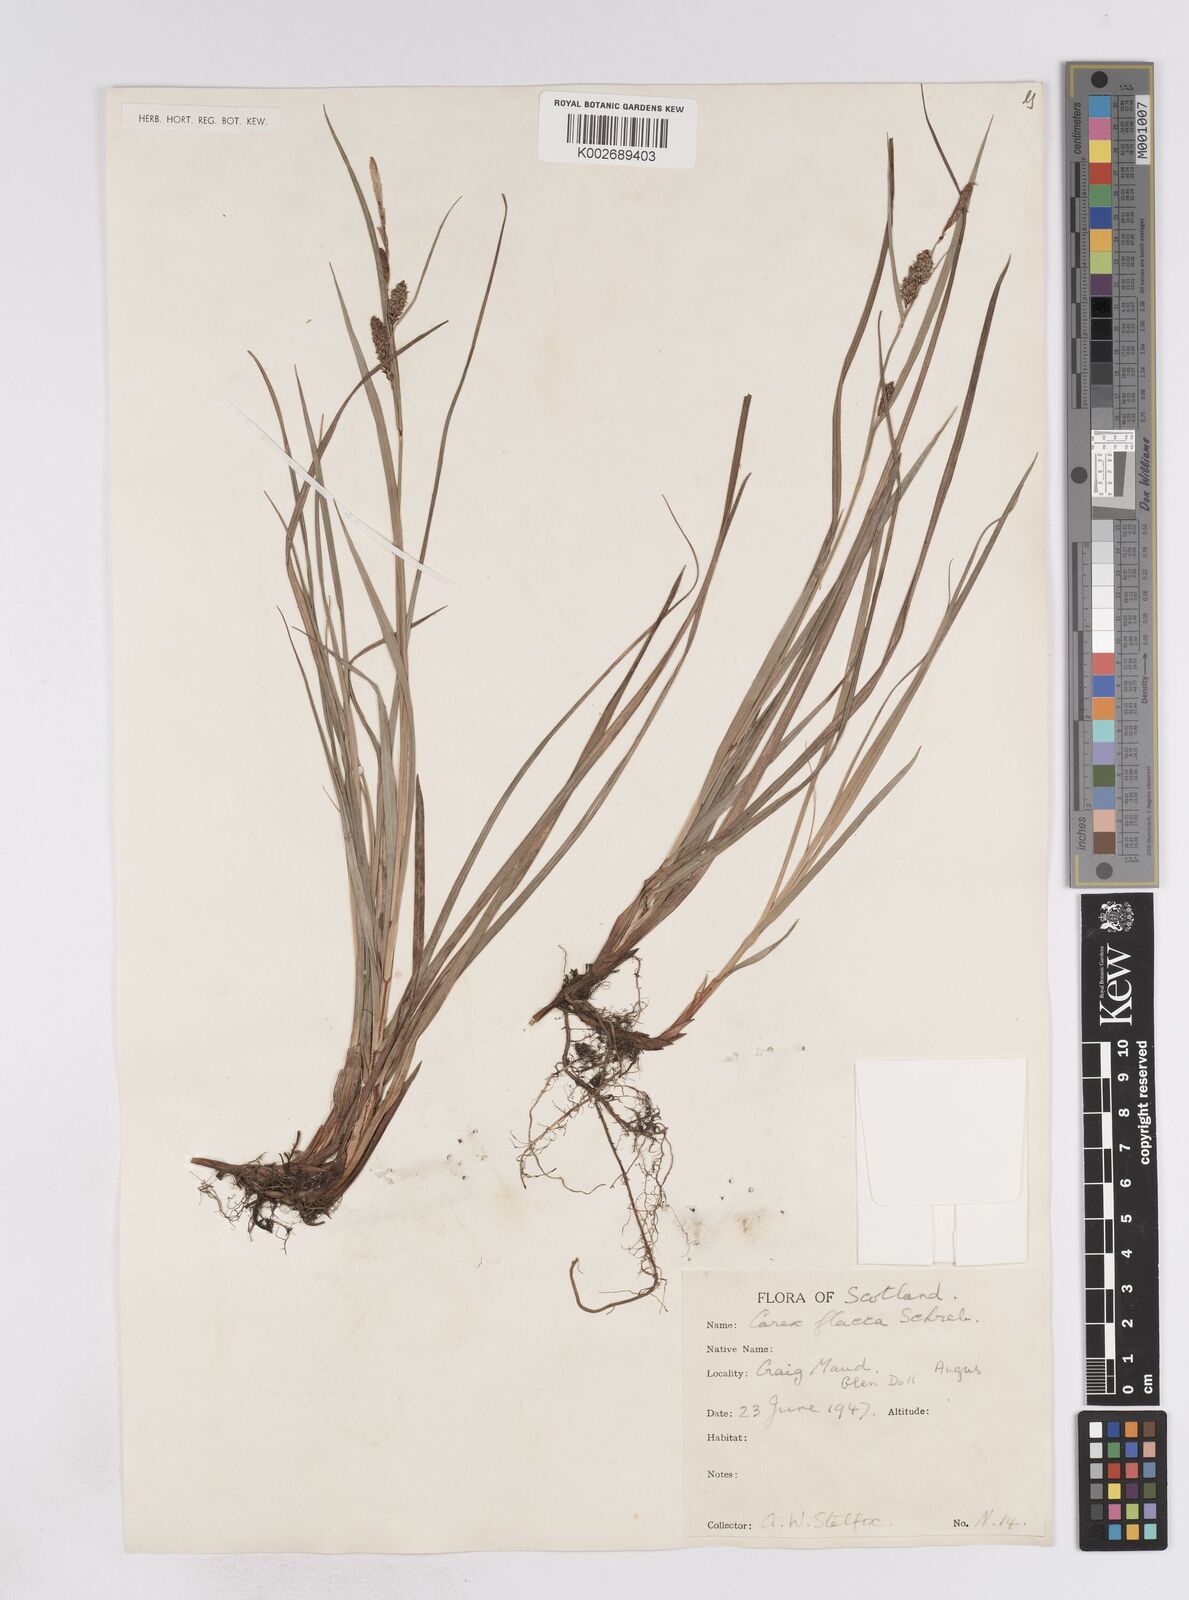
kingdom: Plantae
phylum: Tracheophyta
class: Liliopsida
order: Poales
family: Cyperaceae
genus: Carex
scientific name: Carex flacca
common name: Glaucous sedge
